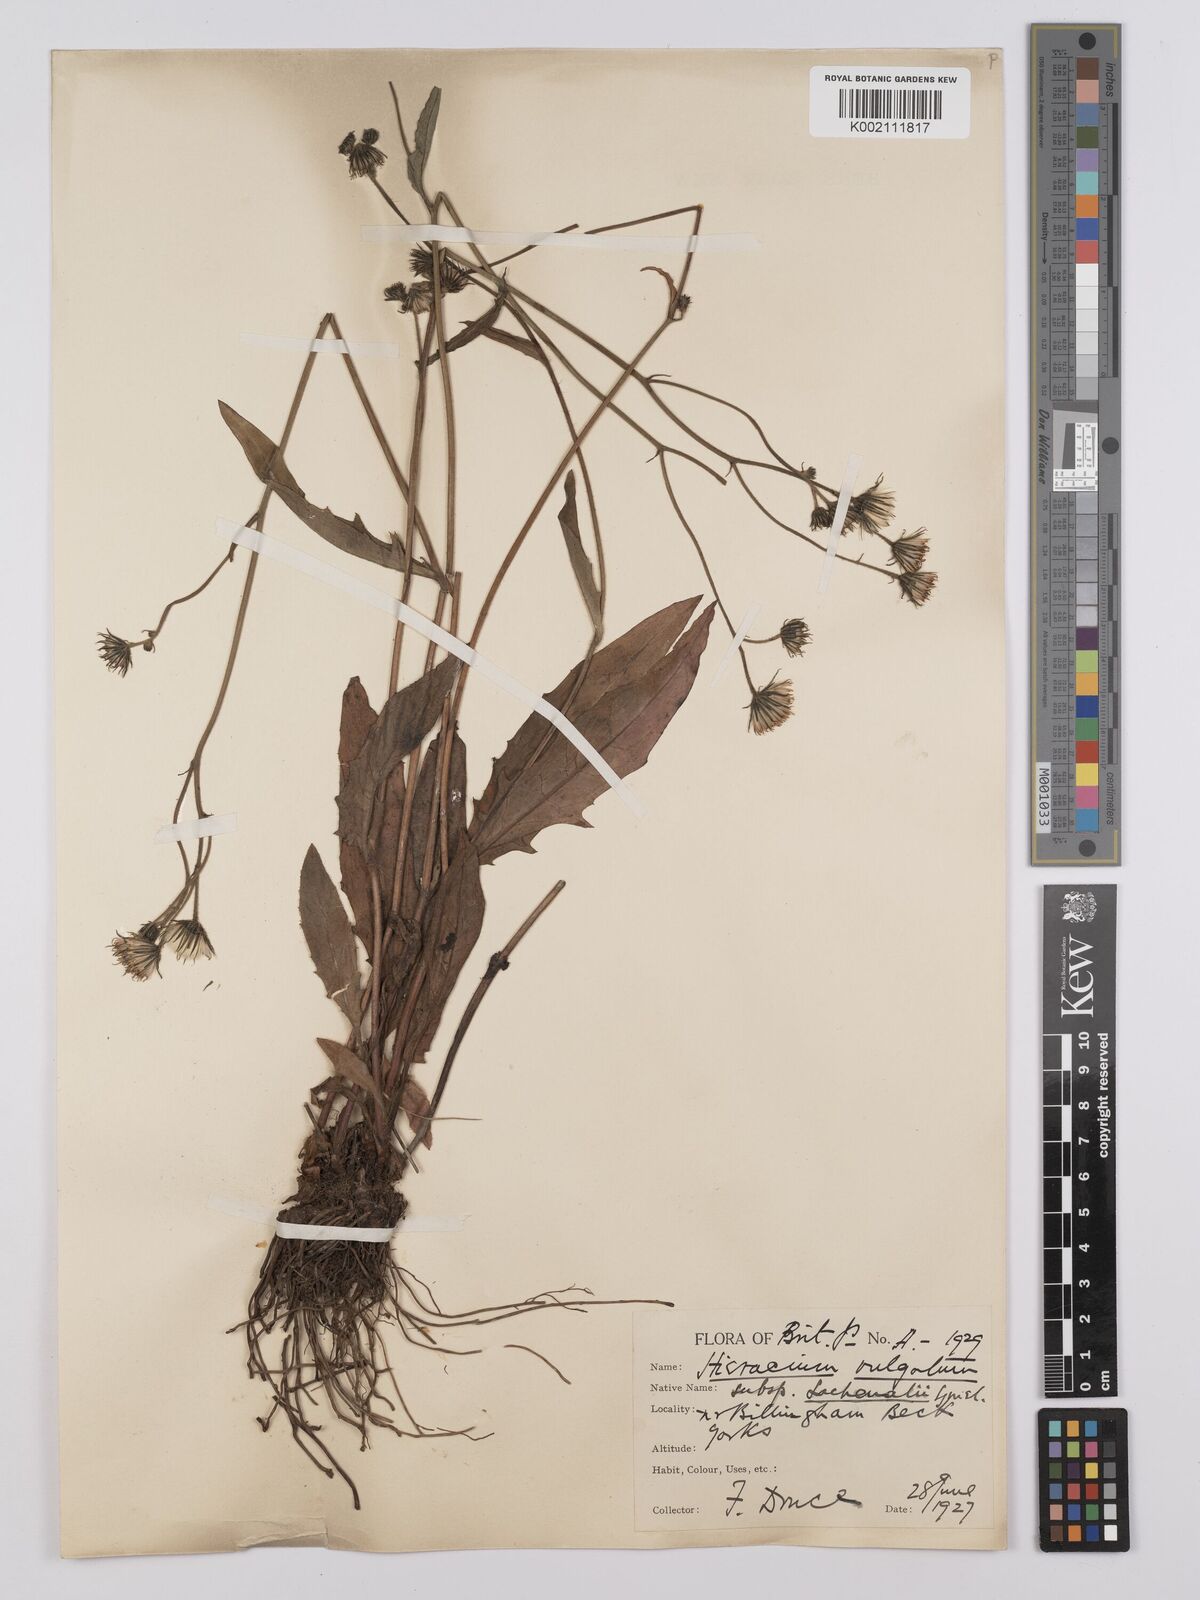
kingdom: Plantae
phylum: Tracheophyta
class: Magnoliopsida
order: Asterales
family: Asteraceae
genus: Hieracium
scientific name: Hieracium lachenalii
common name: Common hawkweed
